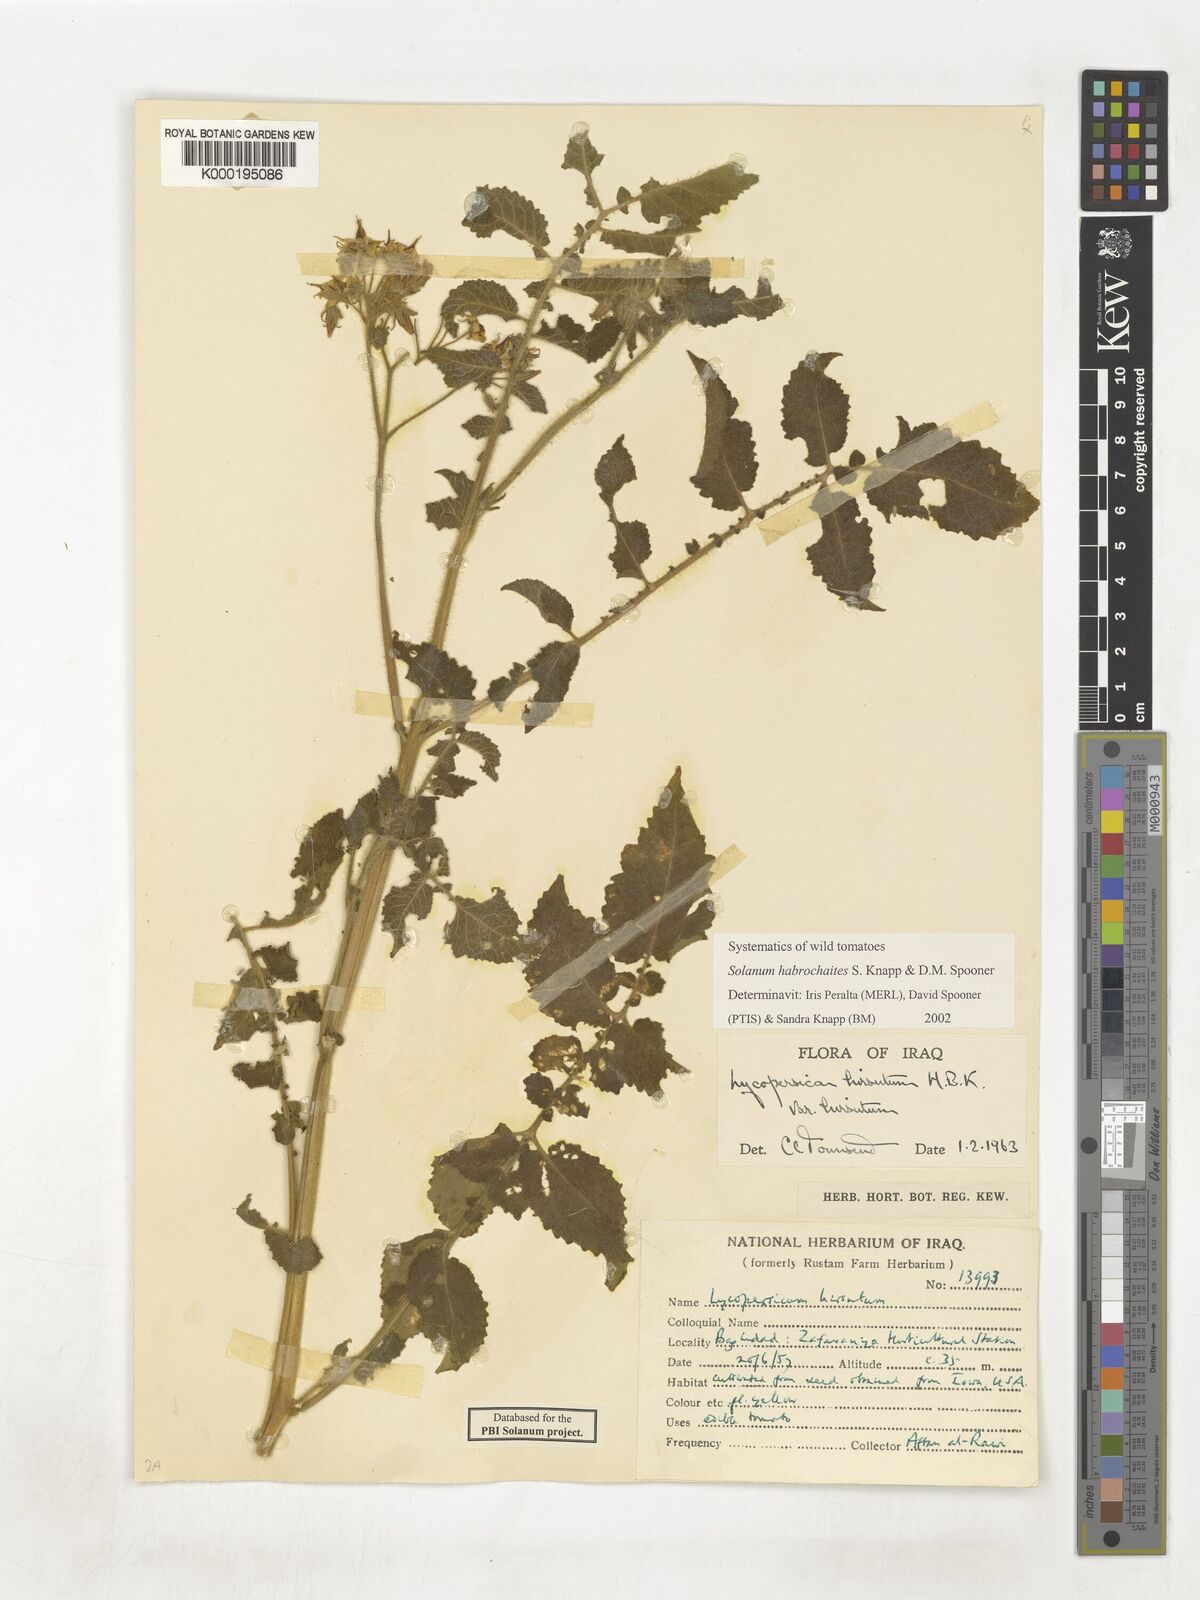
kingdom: Plantae
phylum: Tracheophyta
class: Magnoliopsida
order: Solanales
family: Solanaceae
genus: Solanum
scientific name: Solanum habrochaites
